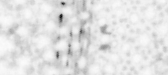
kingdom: Animalia
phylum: Chordata
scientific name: Chordata
